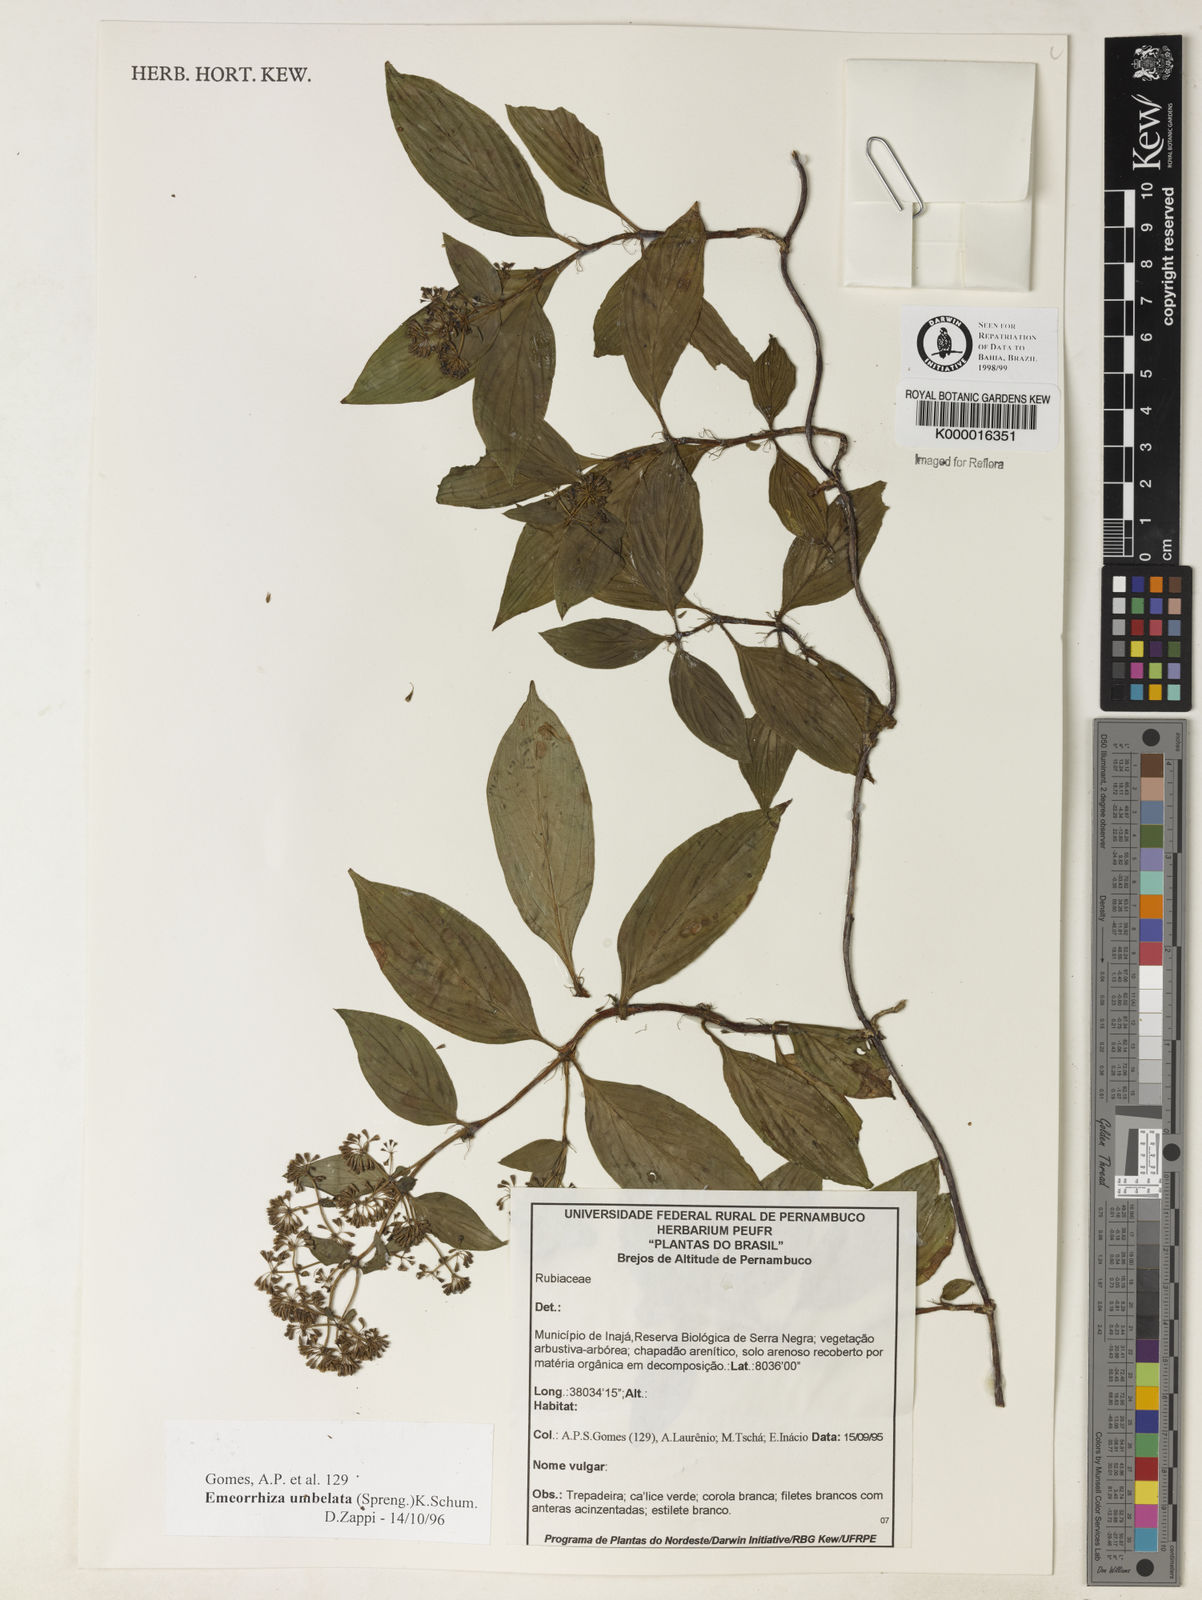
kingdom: Plantae
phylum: Tracheophyta
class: Magnoliopsida
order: Gentianales
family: Rubiaceae
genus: Emmeorhiza
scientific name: Emmeorhiza umbellata
